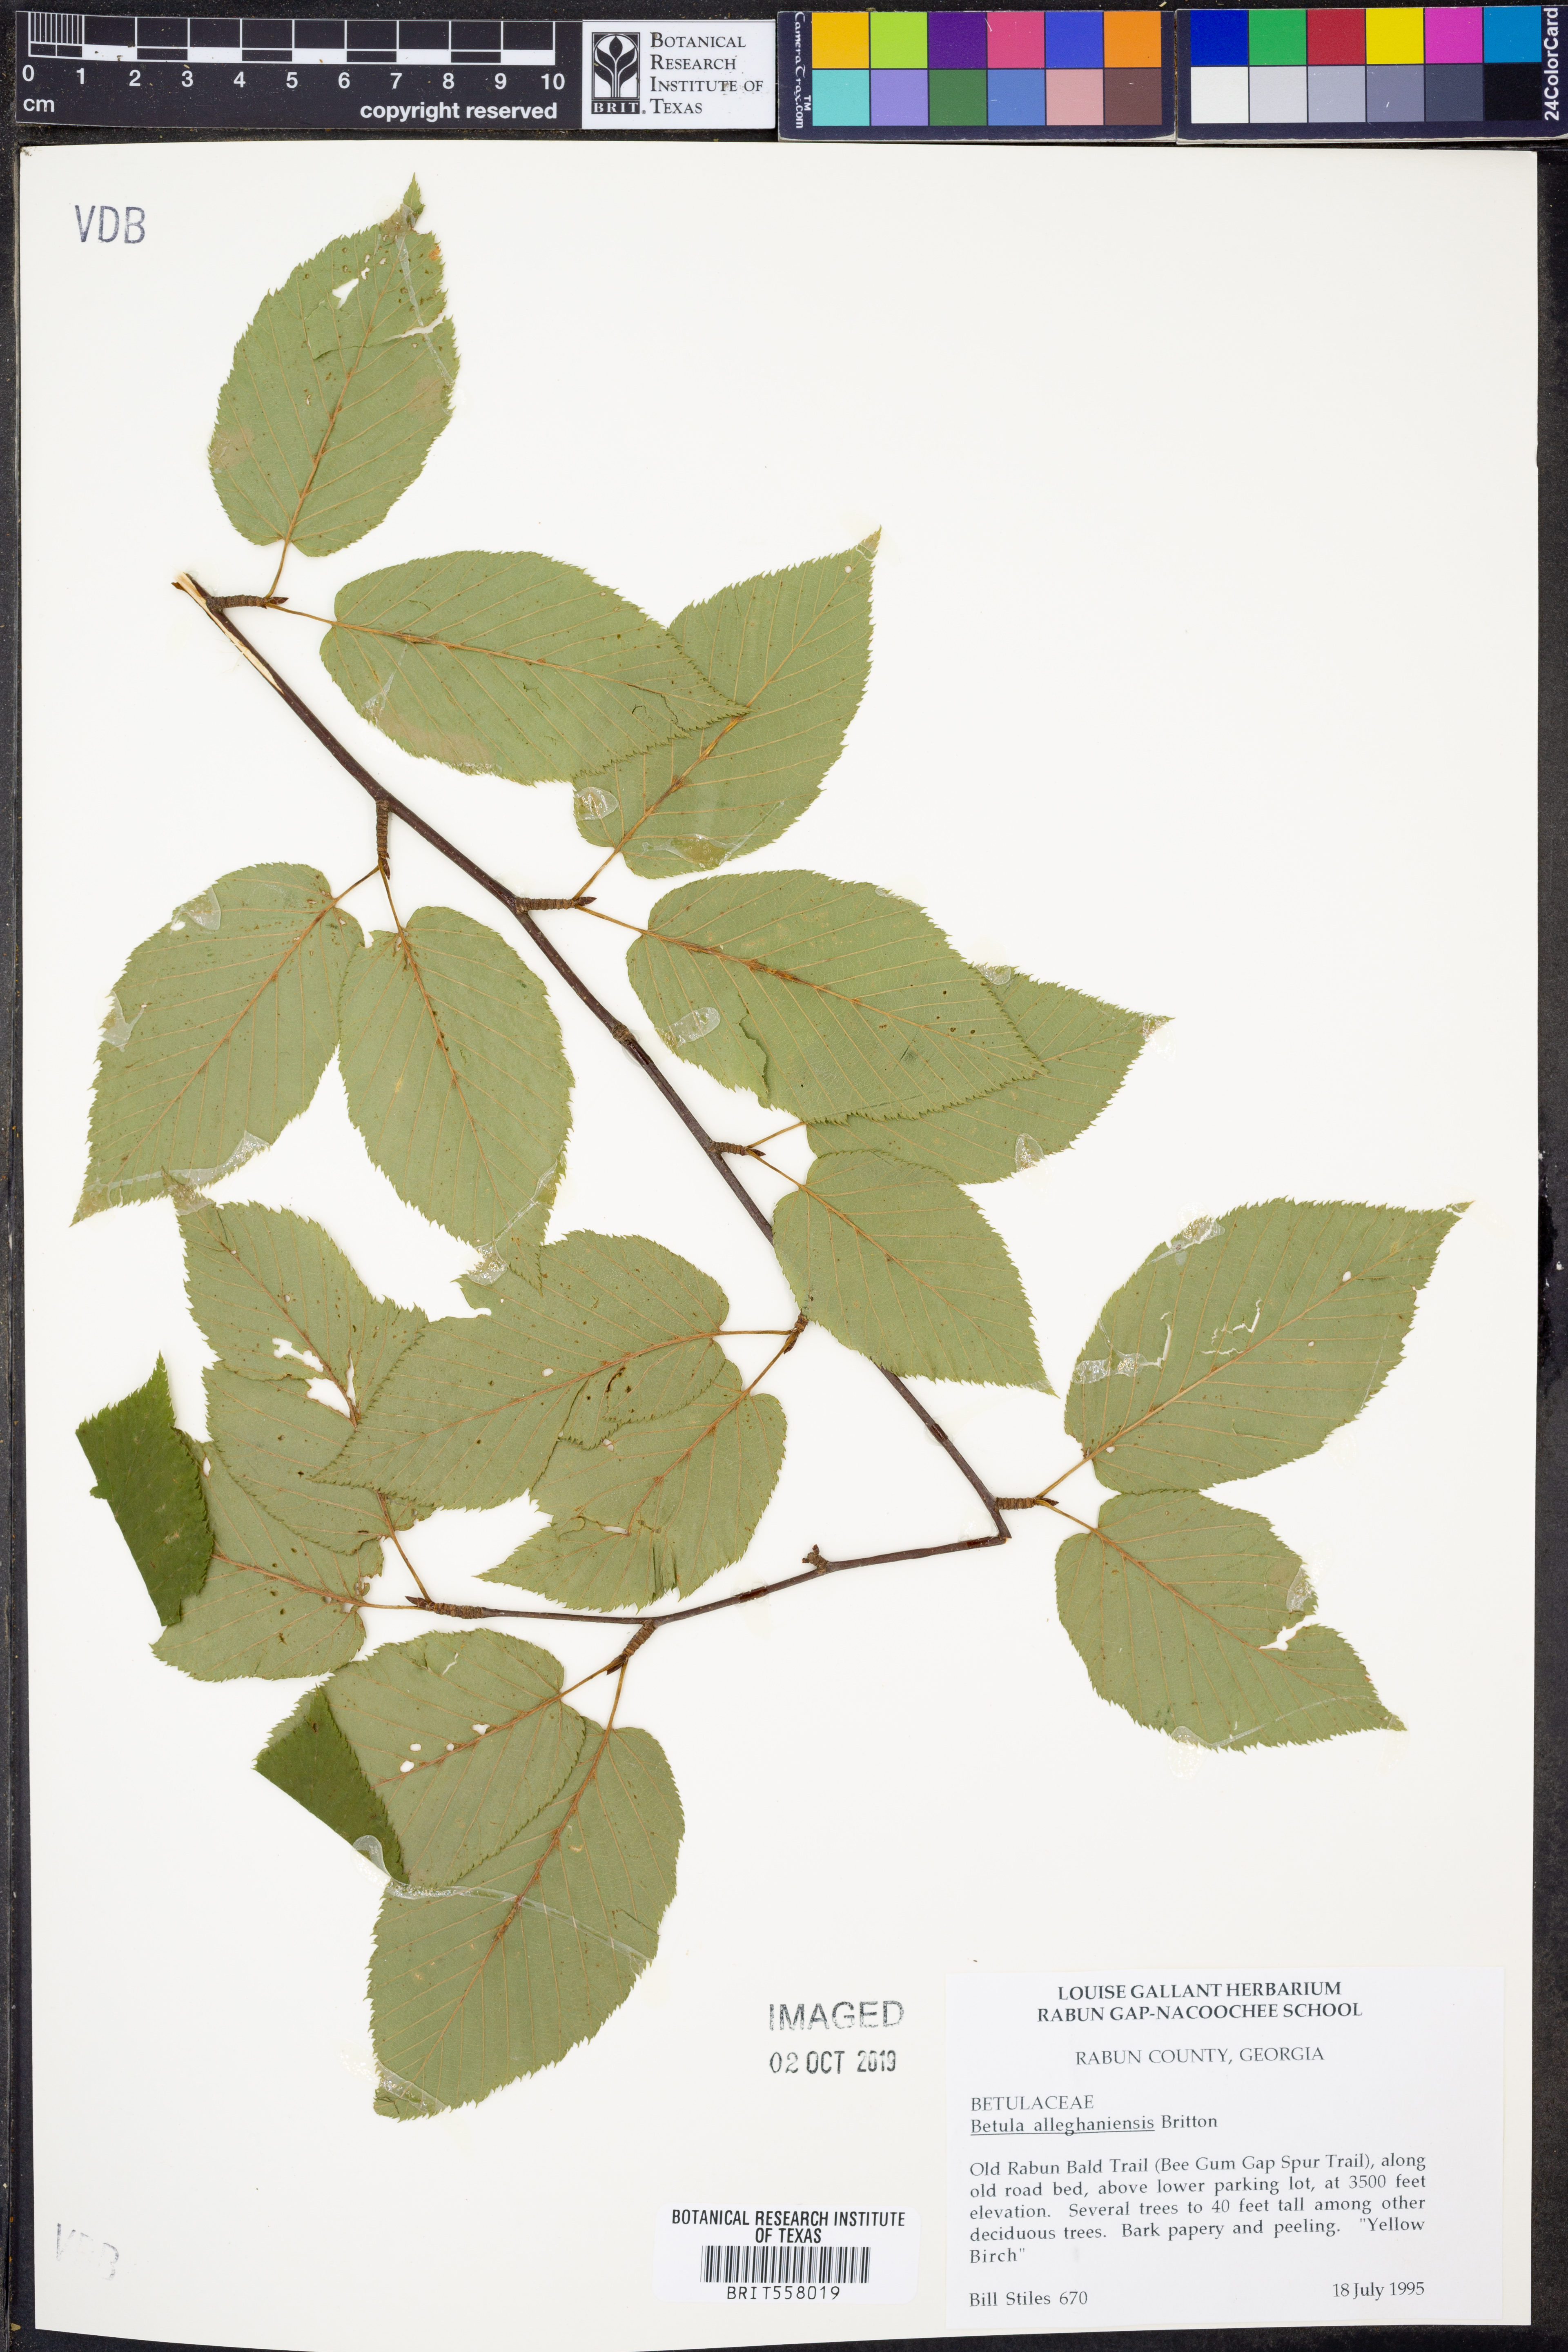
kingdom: Plantae
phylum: Tracheophyta
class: Magnoliopsida
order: Fagales
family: Betulaceae
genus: Betula
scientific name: Betula alleghaniensis
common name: Yellow birch
